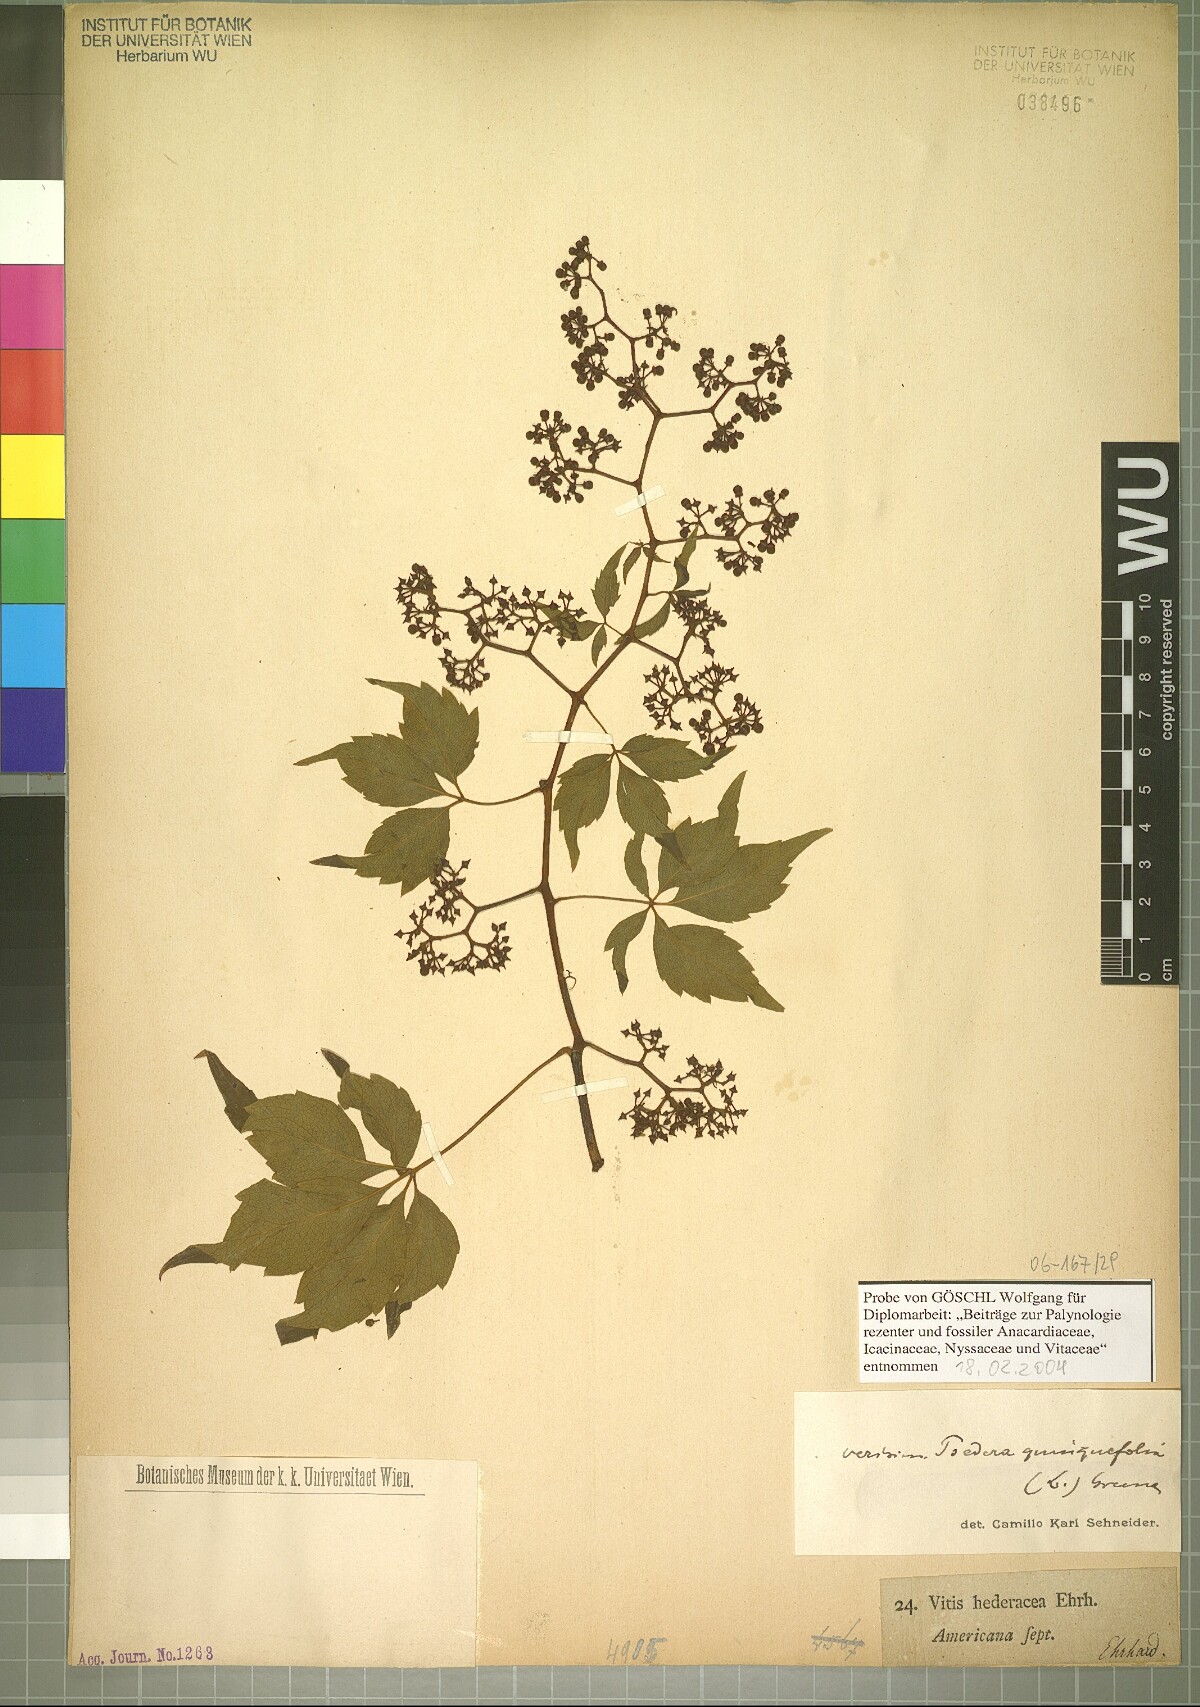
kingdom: Plantae
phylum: Tracheophyta
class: Magnoliopsida
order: Vitales
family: Vitaceae
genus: Parthenocissus
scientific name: Parthenocissus quinquefolia
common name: Virginia-creeper
